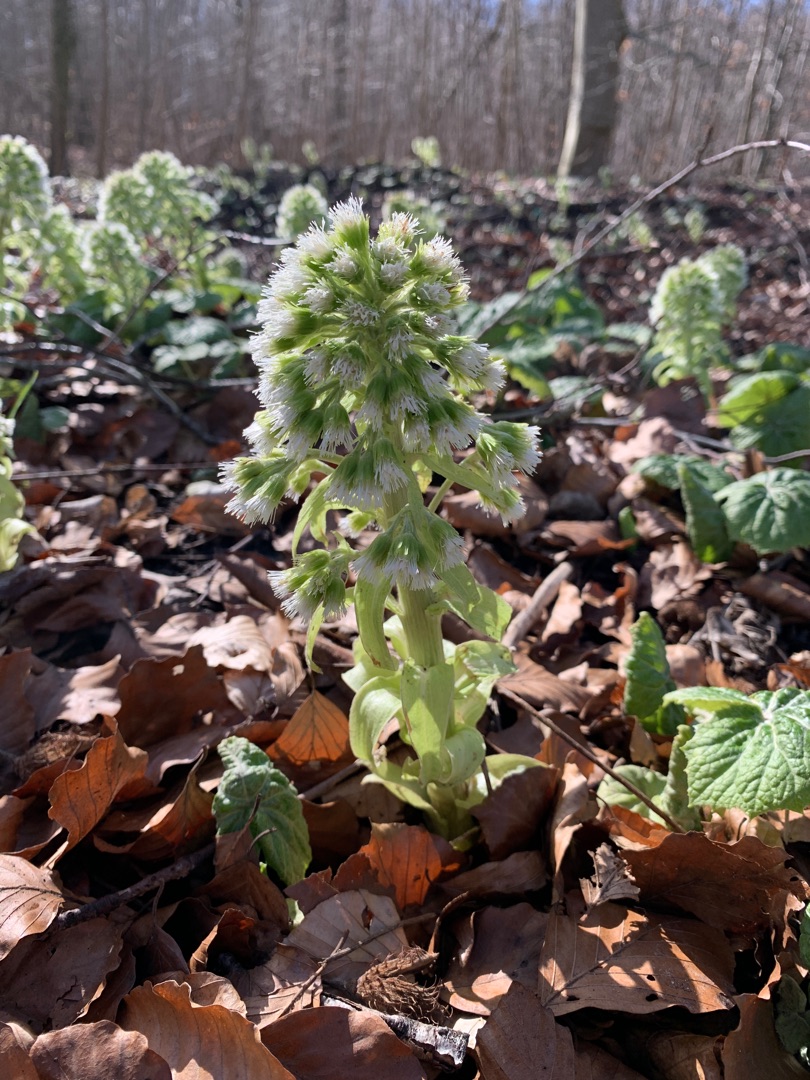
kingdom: Plantae
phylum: Tracheophyta
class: Magnoliopsida
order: Asterales
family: Asteraceae
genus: Petasites
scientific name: Petasites albus
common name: Hvid hestehov
